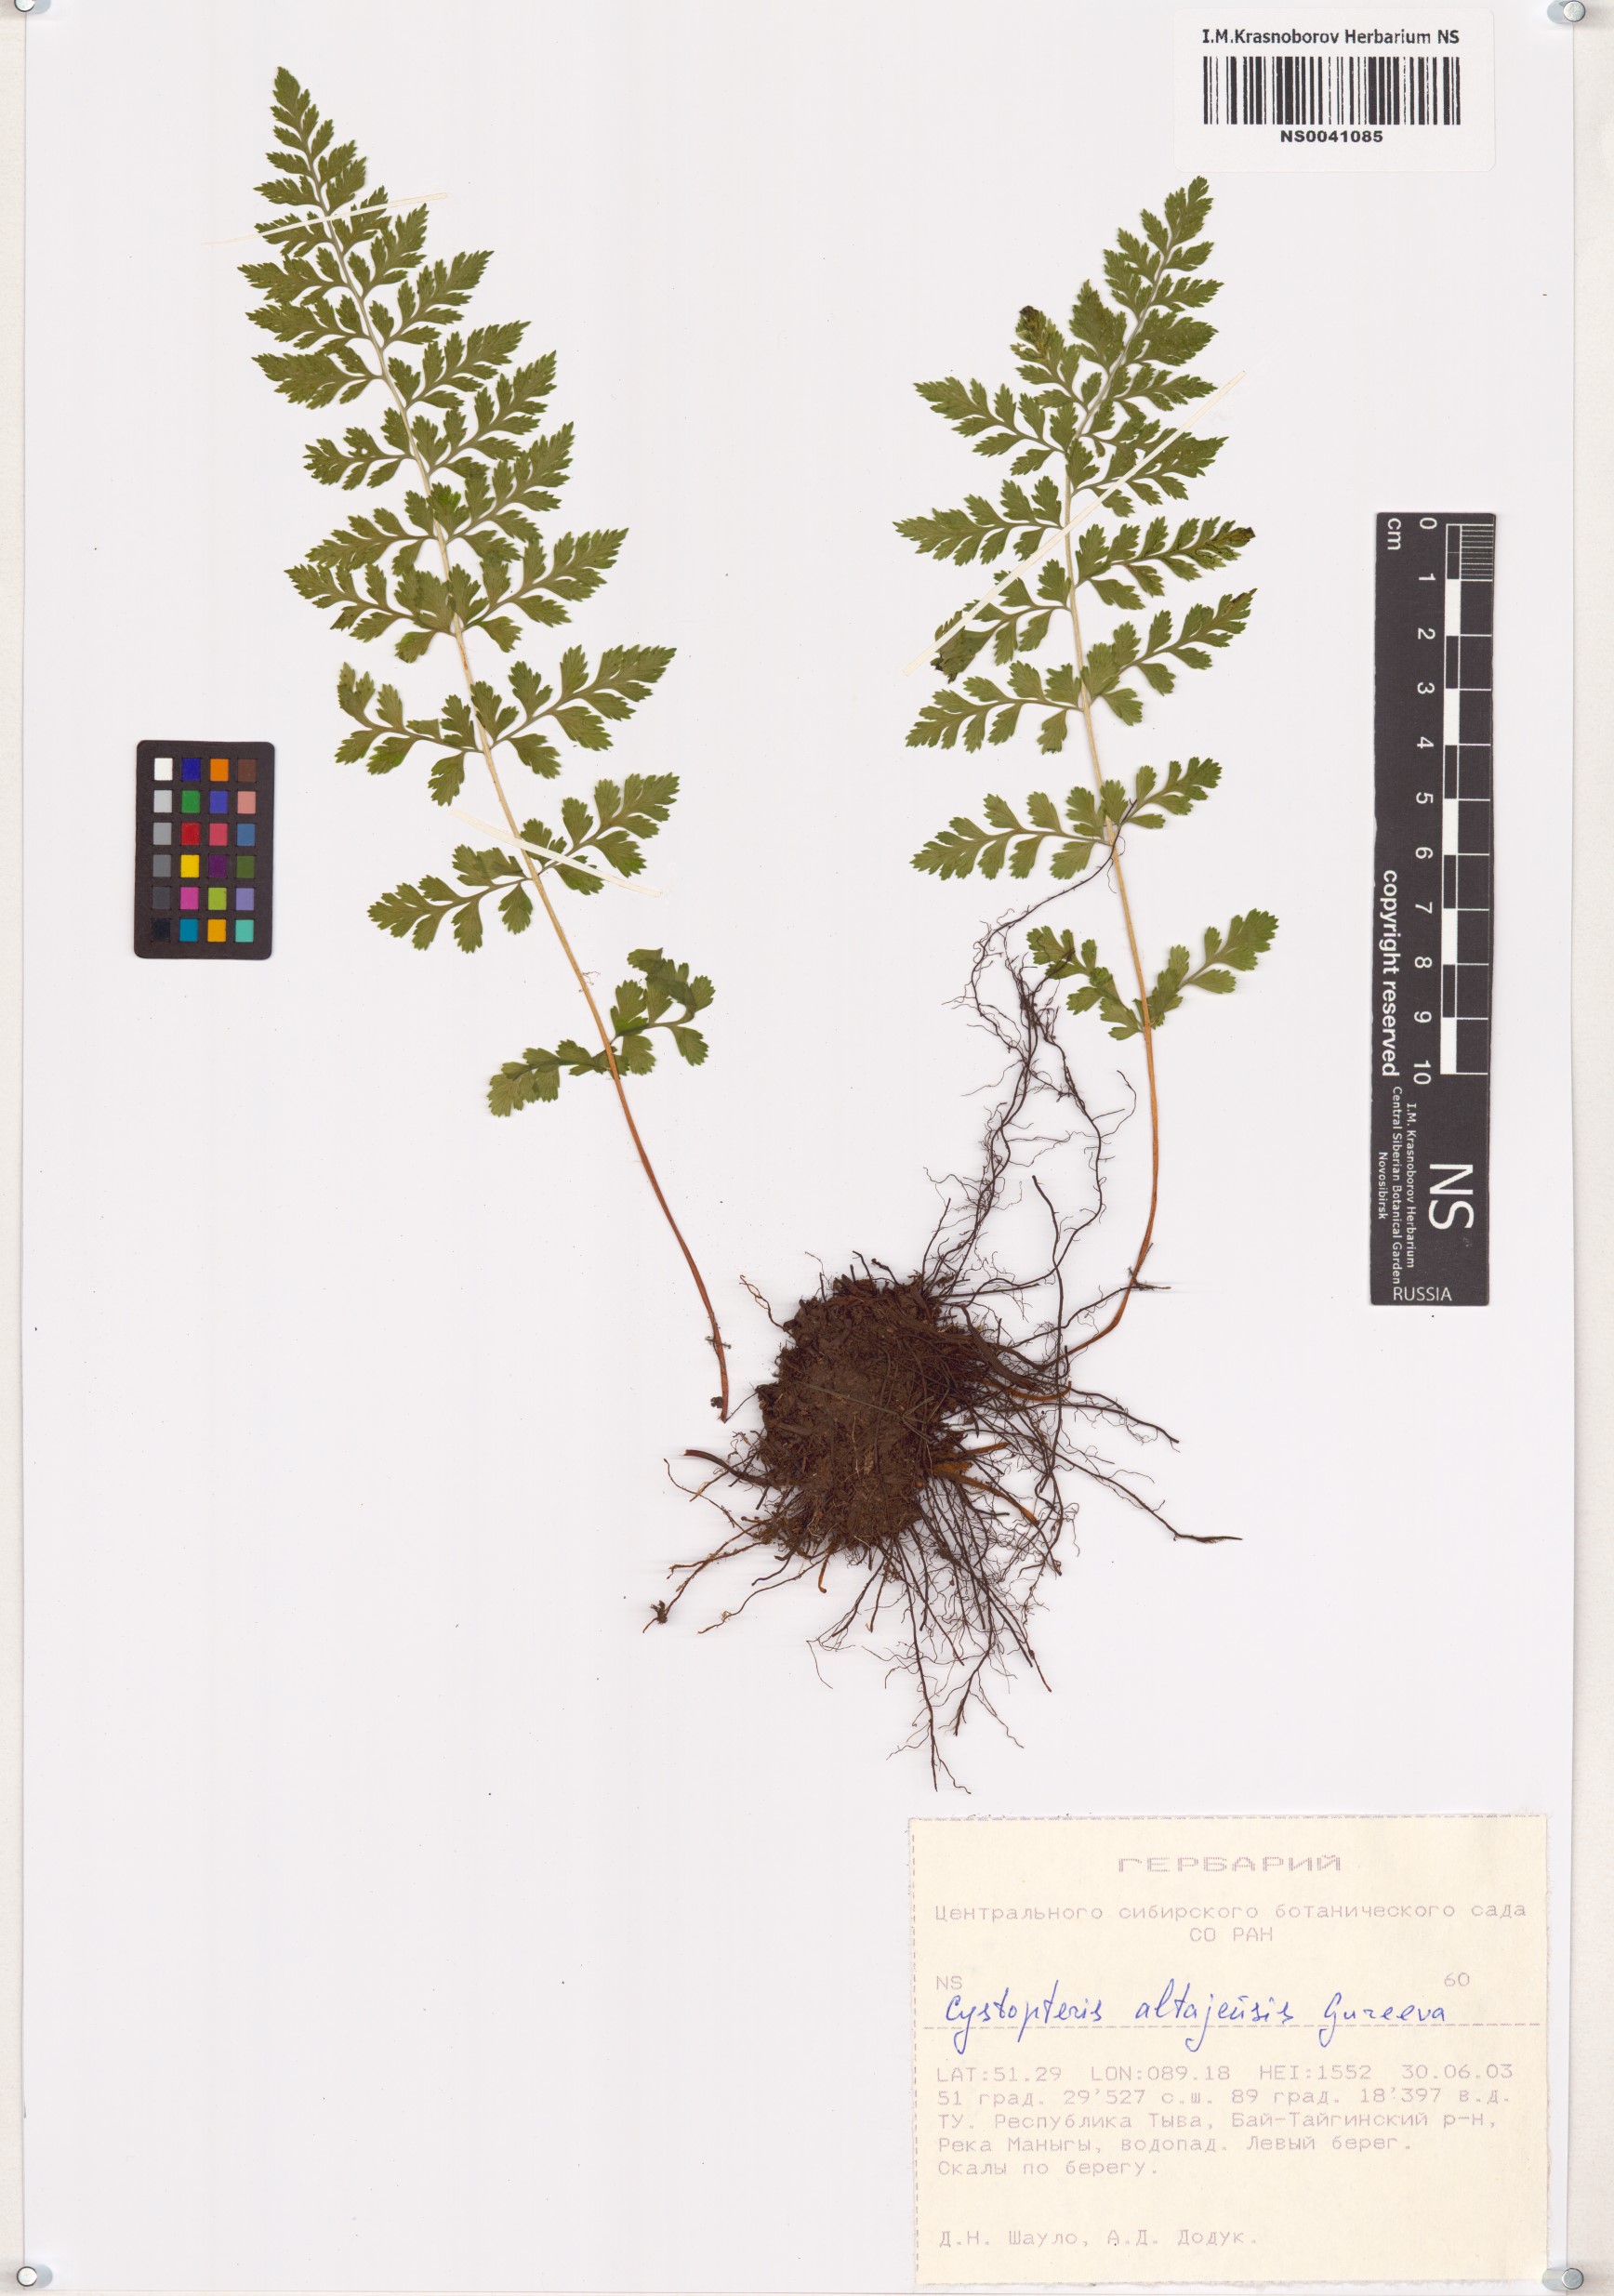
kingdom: Plantae
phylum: Tracheophyta
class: Polypodiopsida
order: Polypodiales
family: Cystopteridaceae
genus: Cystopteris
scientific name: Cystopteris diaphana
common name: Greenish bladder-fern
